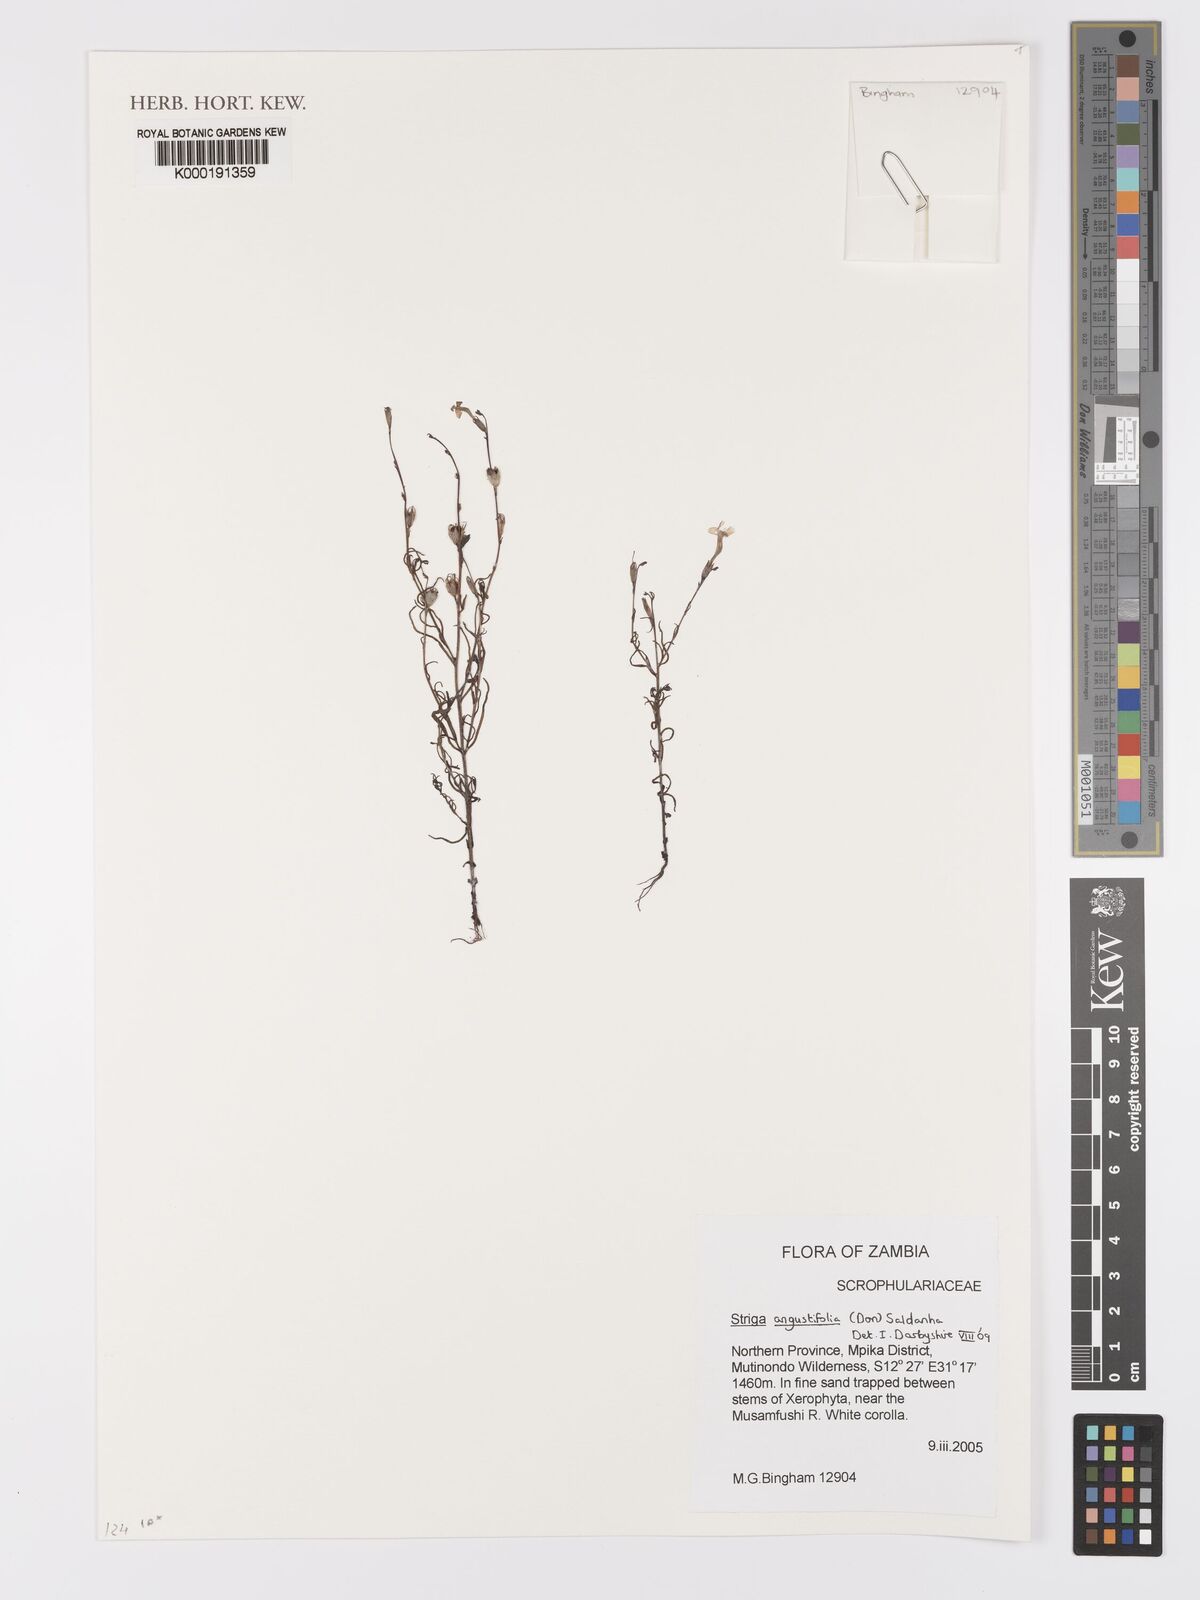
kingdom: Plantae
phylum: Tracheophyta
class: Magnoliopsida
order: Lamiales
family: Orobanchaceae
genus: Striga
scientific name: Striga angustifolia
